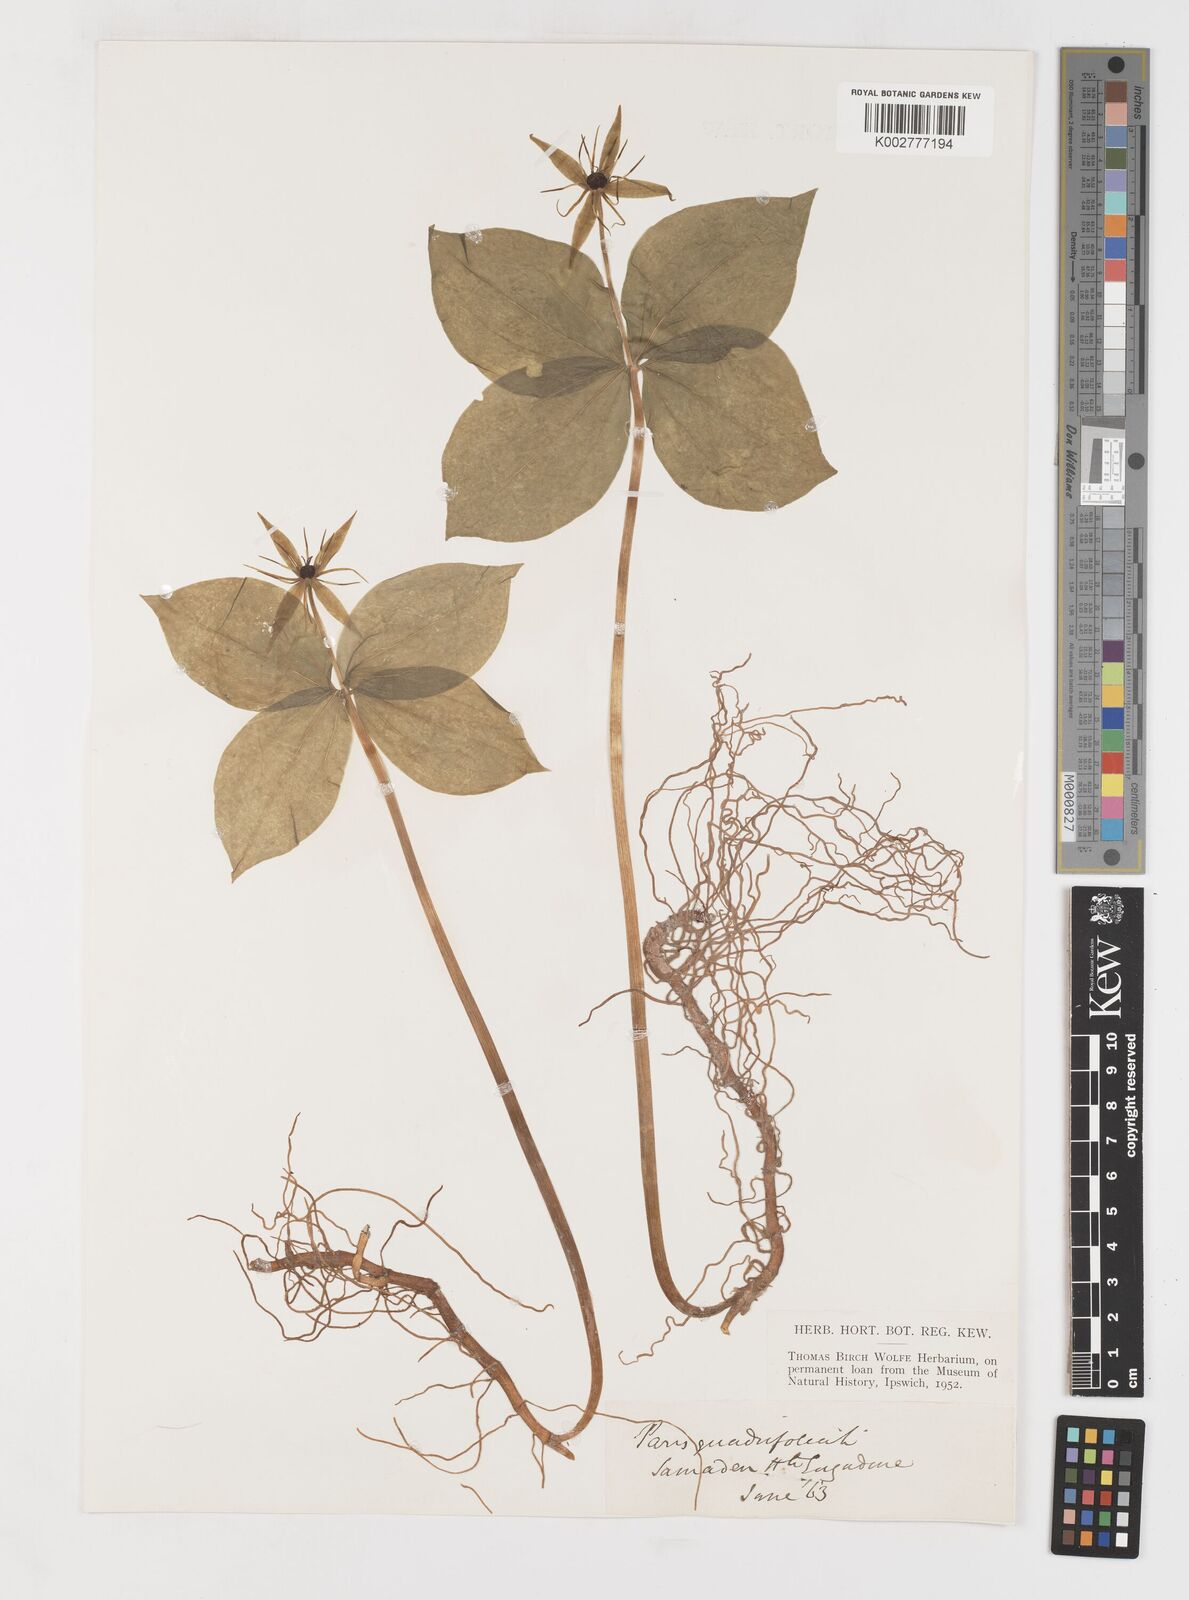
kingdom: Plantae
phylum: Tracheophyta
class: Liliopsida
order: Liliales
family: Melanthiaceae
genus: Paris
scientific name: Paris quadrifolia
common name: Herb-paris
